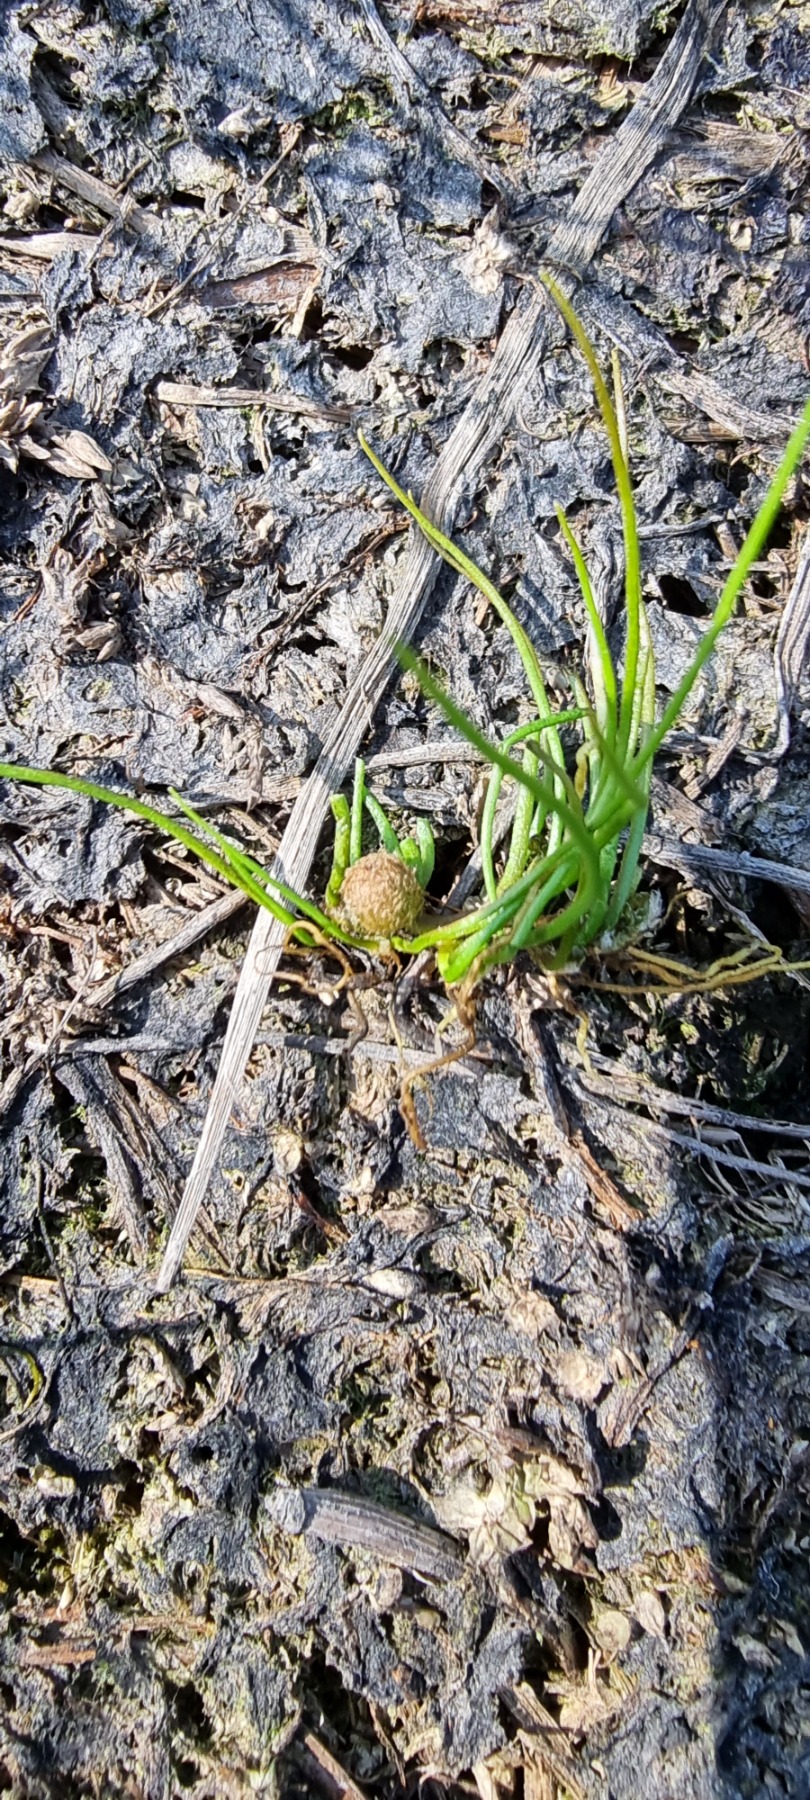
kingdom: Plantae
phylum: Tracheophyta
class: Polypodiopsida
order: Salviniales
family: Marsileaceae
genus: Pilularia
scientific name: Pilularia globulifera
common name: Pilledrager
